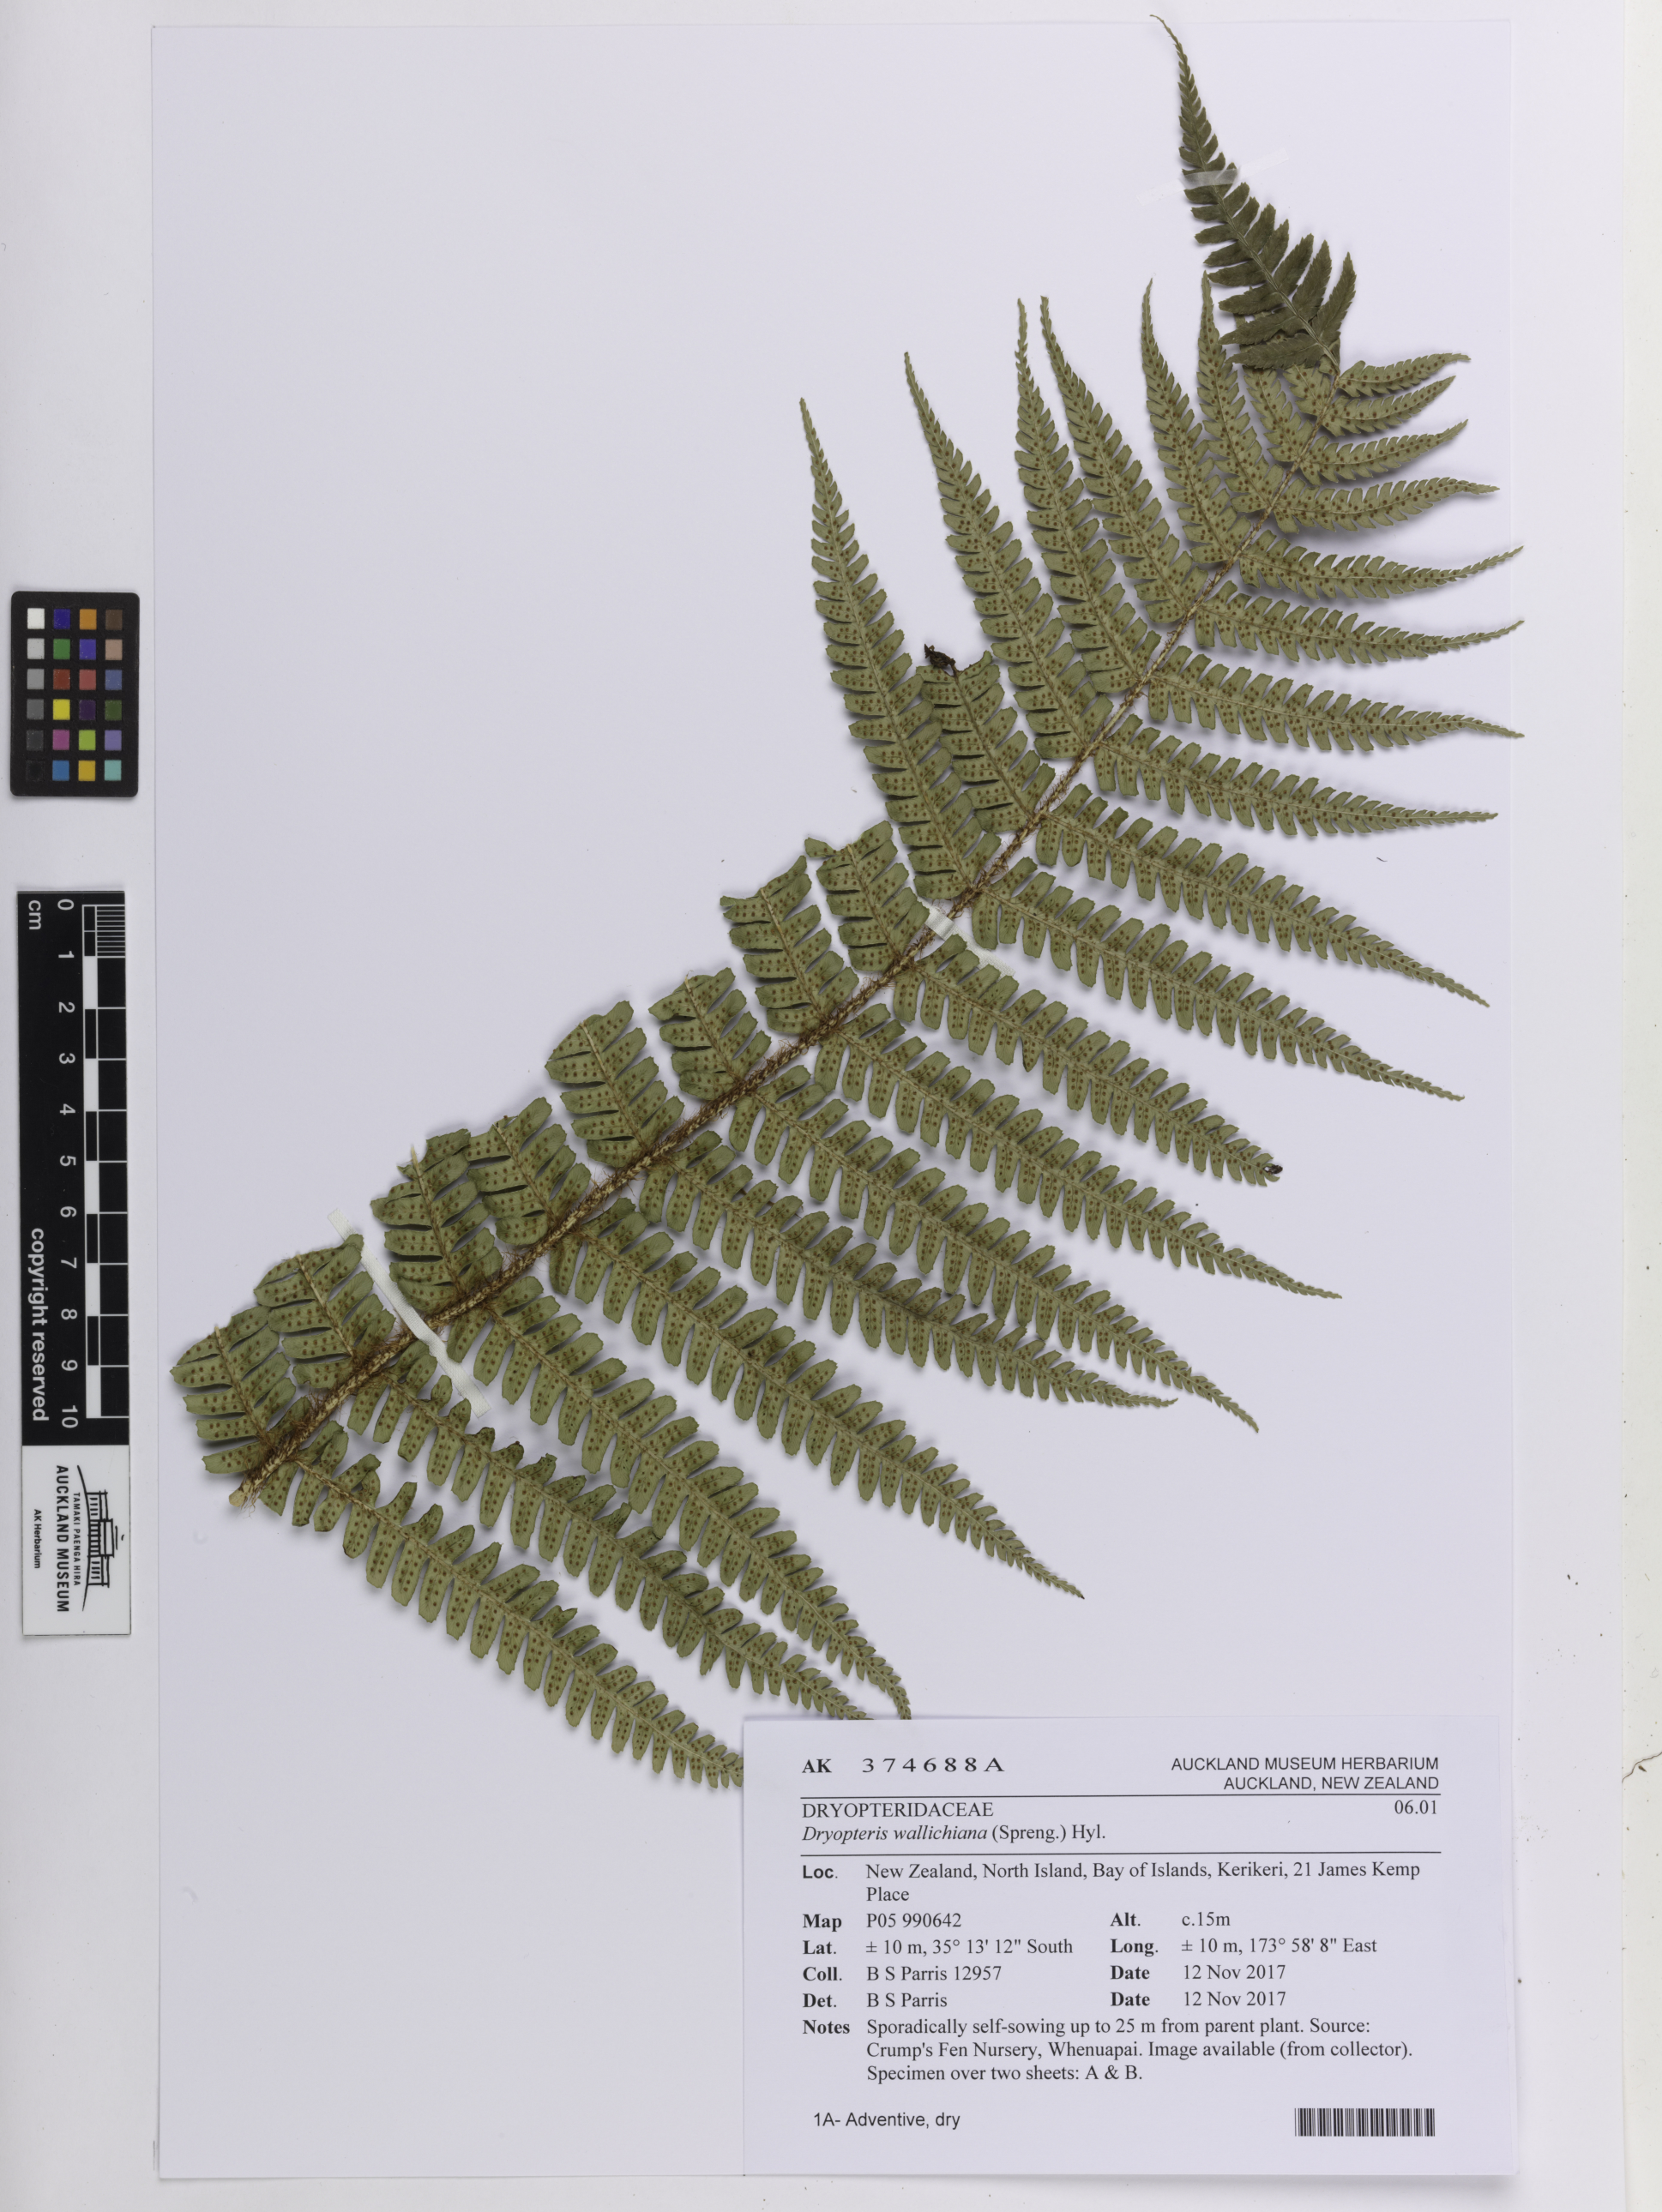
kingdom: Plantae
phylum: Tracheophyta
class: Polypodiopsida
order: Polypodiales
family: Dryopteridaceae
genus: Dryopteris
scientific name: Dryopteris wallichiana
